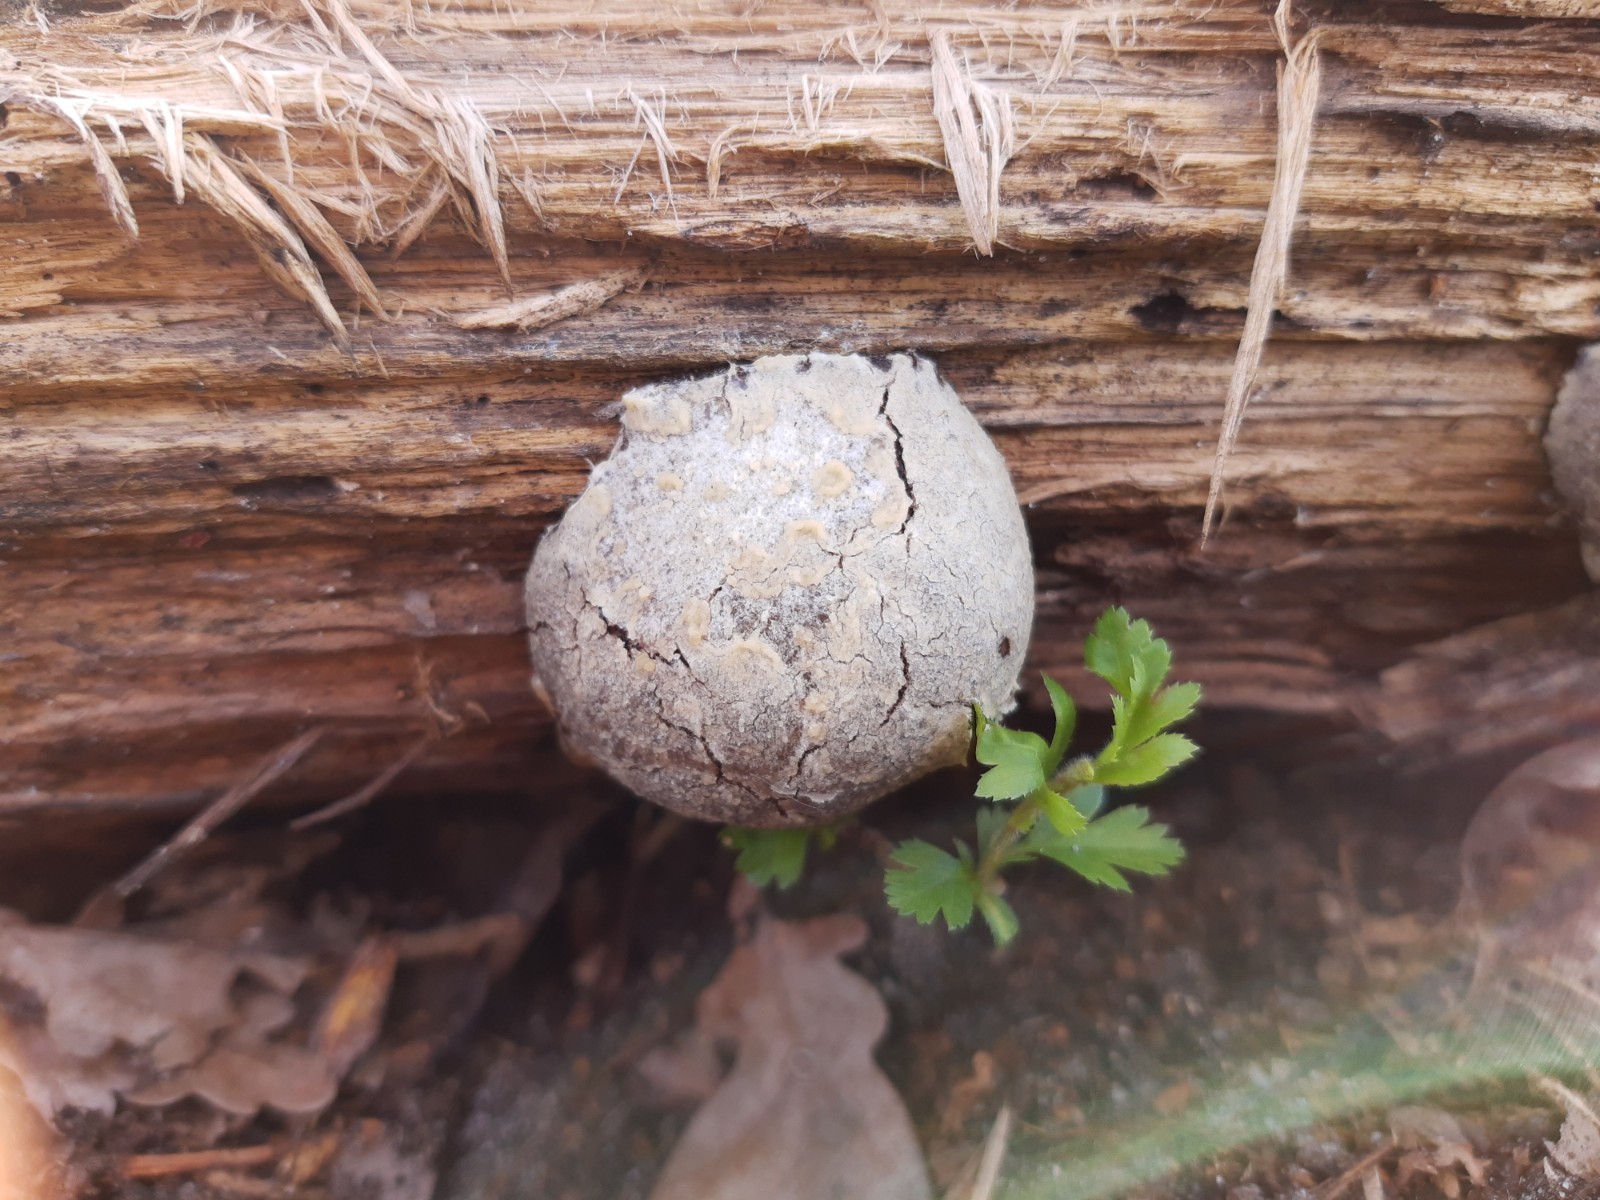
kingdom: Protozoa
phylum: Mycetozoa
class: Myxomycetes
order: Cribrariales
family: Tubiferaceae
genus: Reticularia
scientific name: Reticularia lycoperdon
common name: skinnende støvpude
